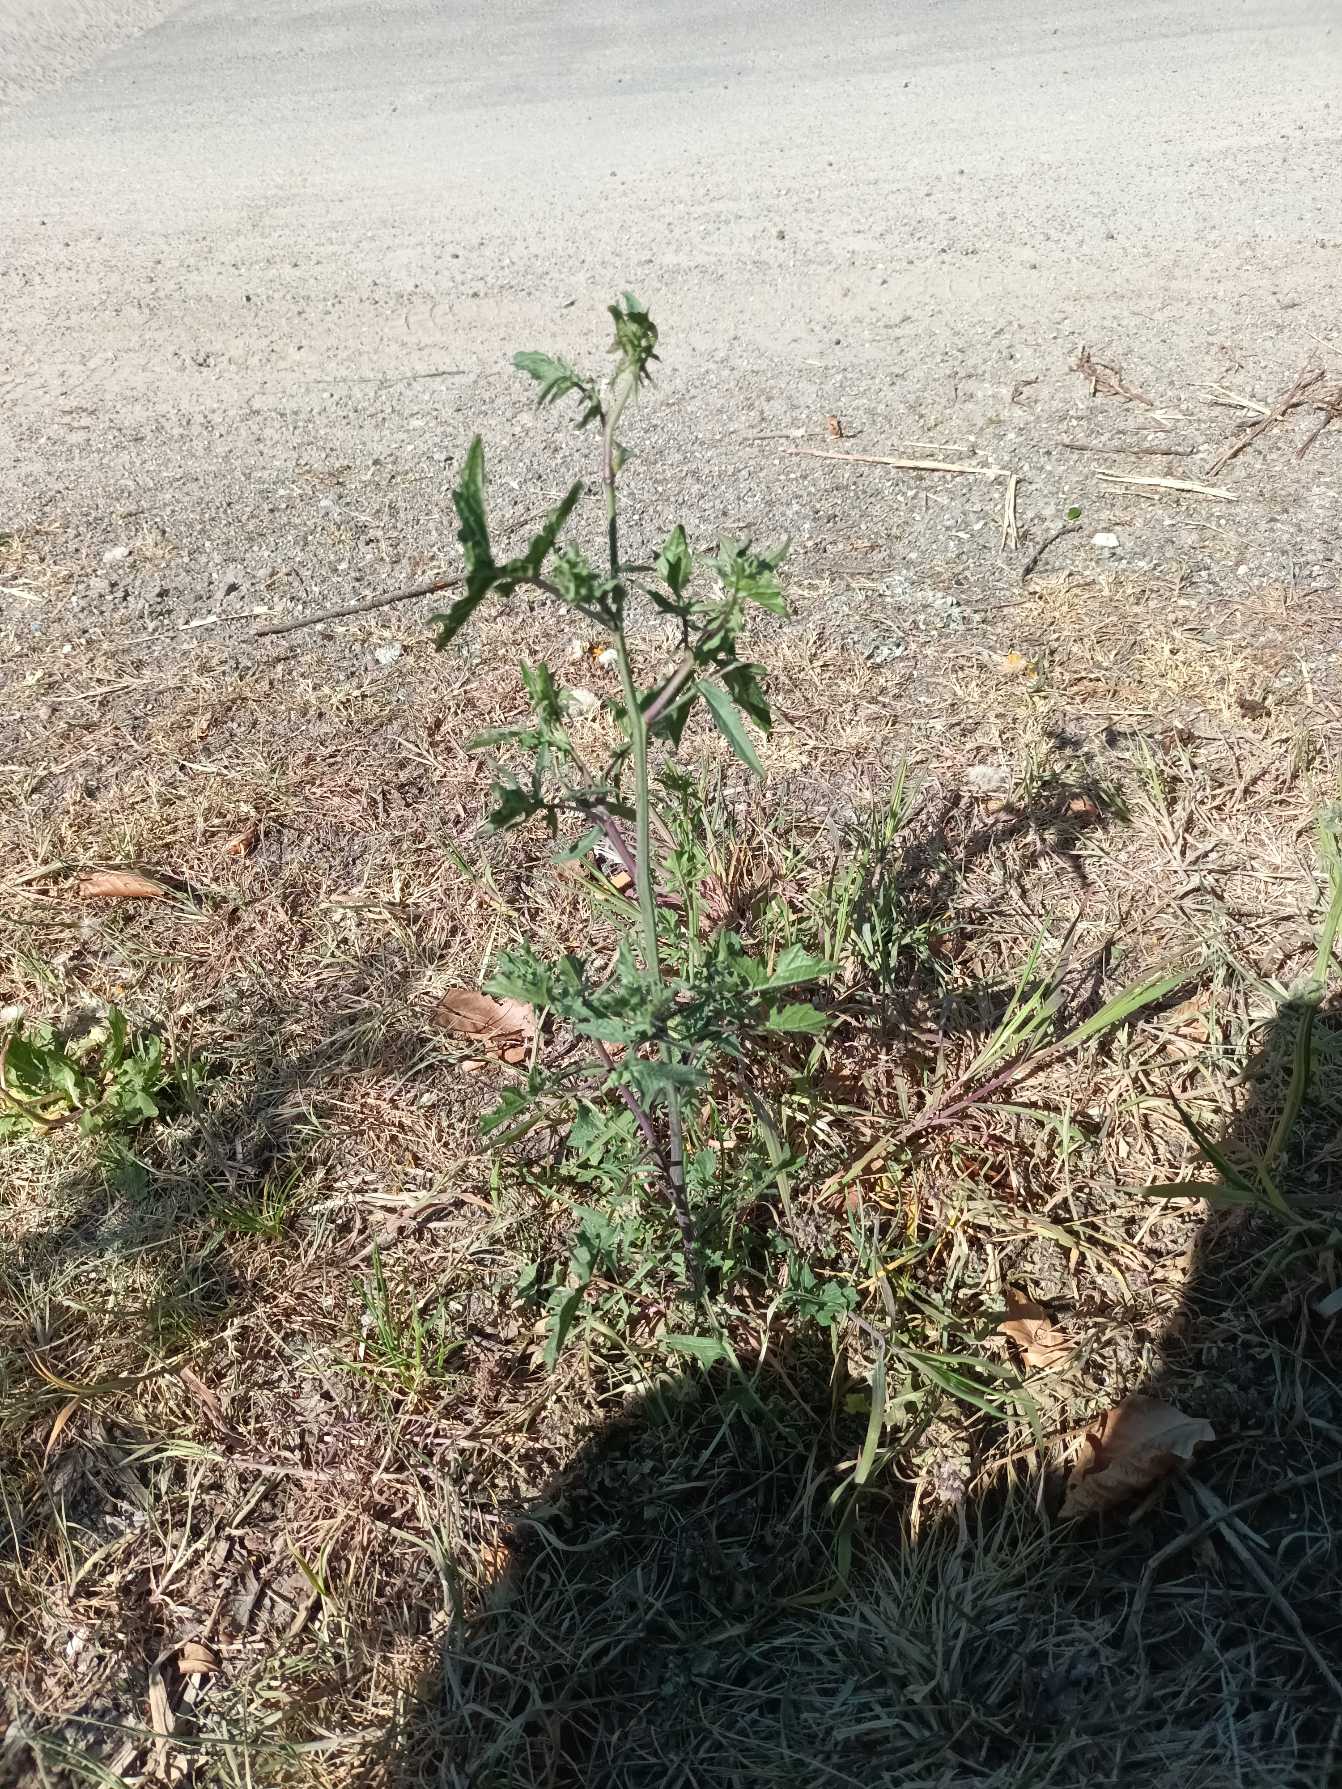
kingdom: Plantae
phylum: Tracheophyta
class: Magnoliopsida
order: Brassicales
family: Brassicaceae
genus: Sisymbrium
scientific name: Sisymbrium officinale
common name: Rank vejsennep
